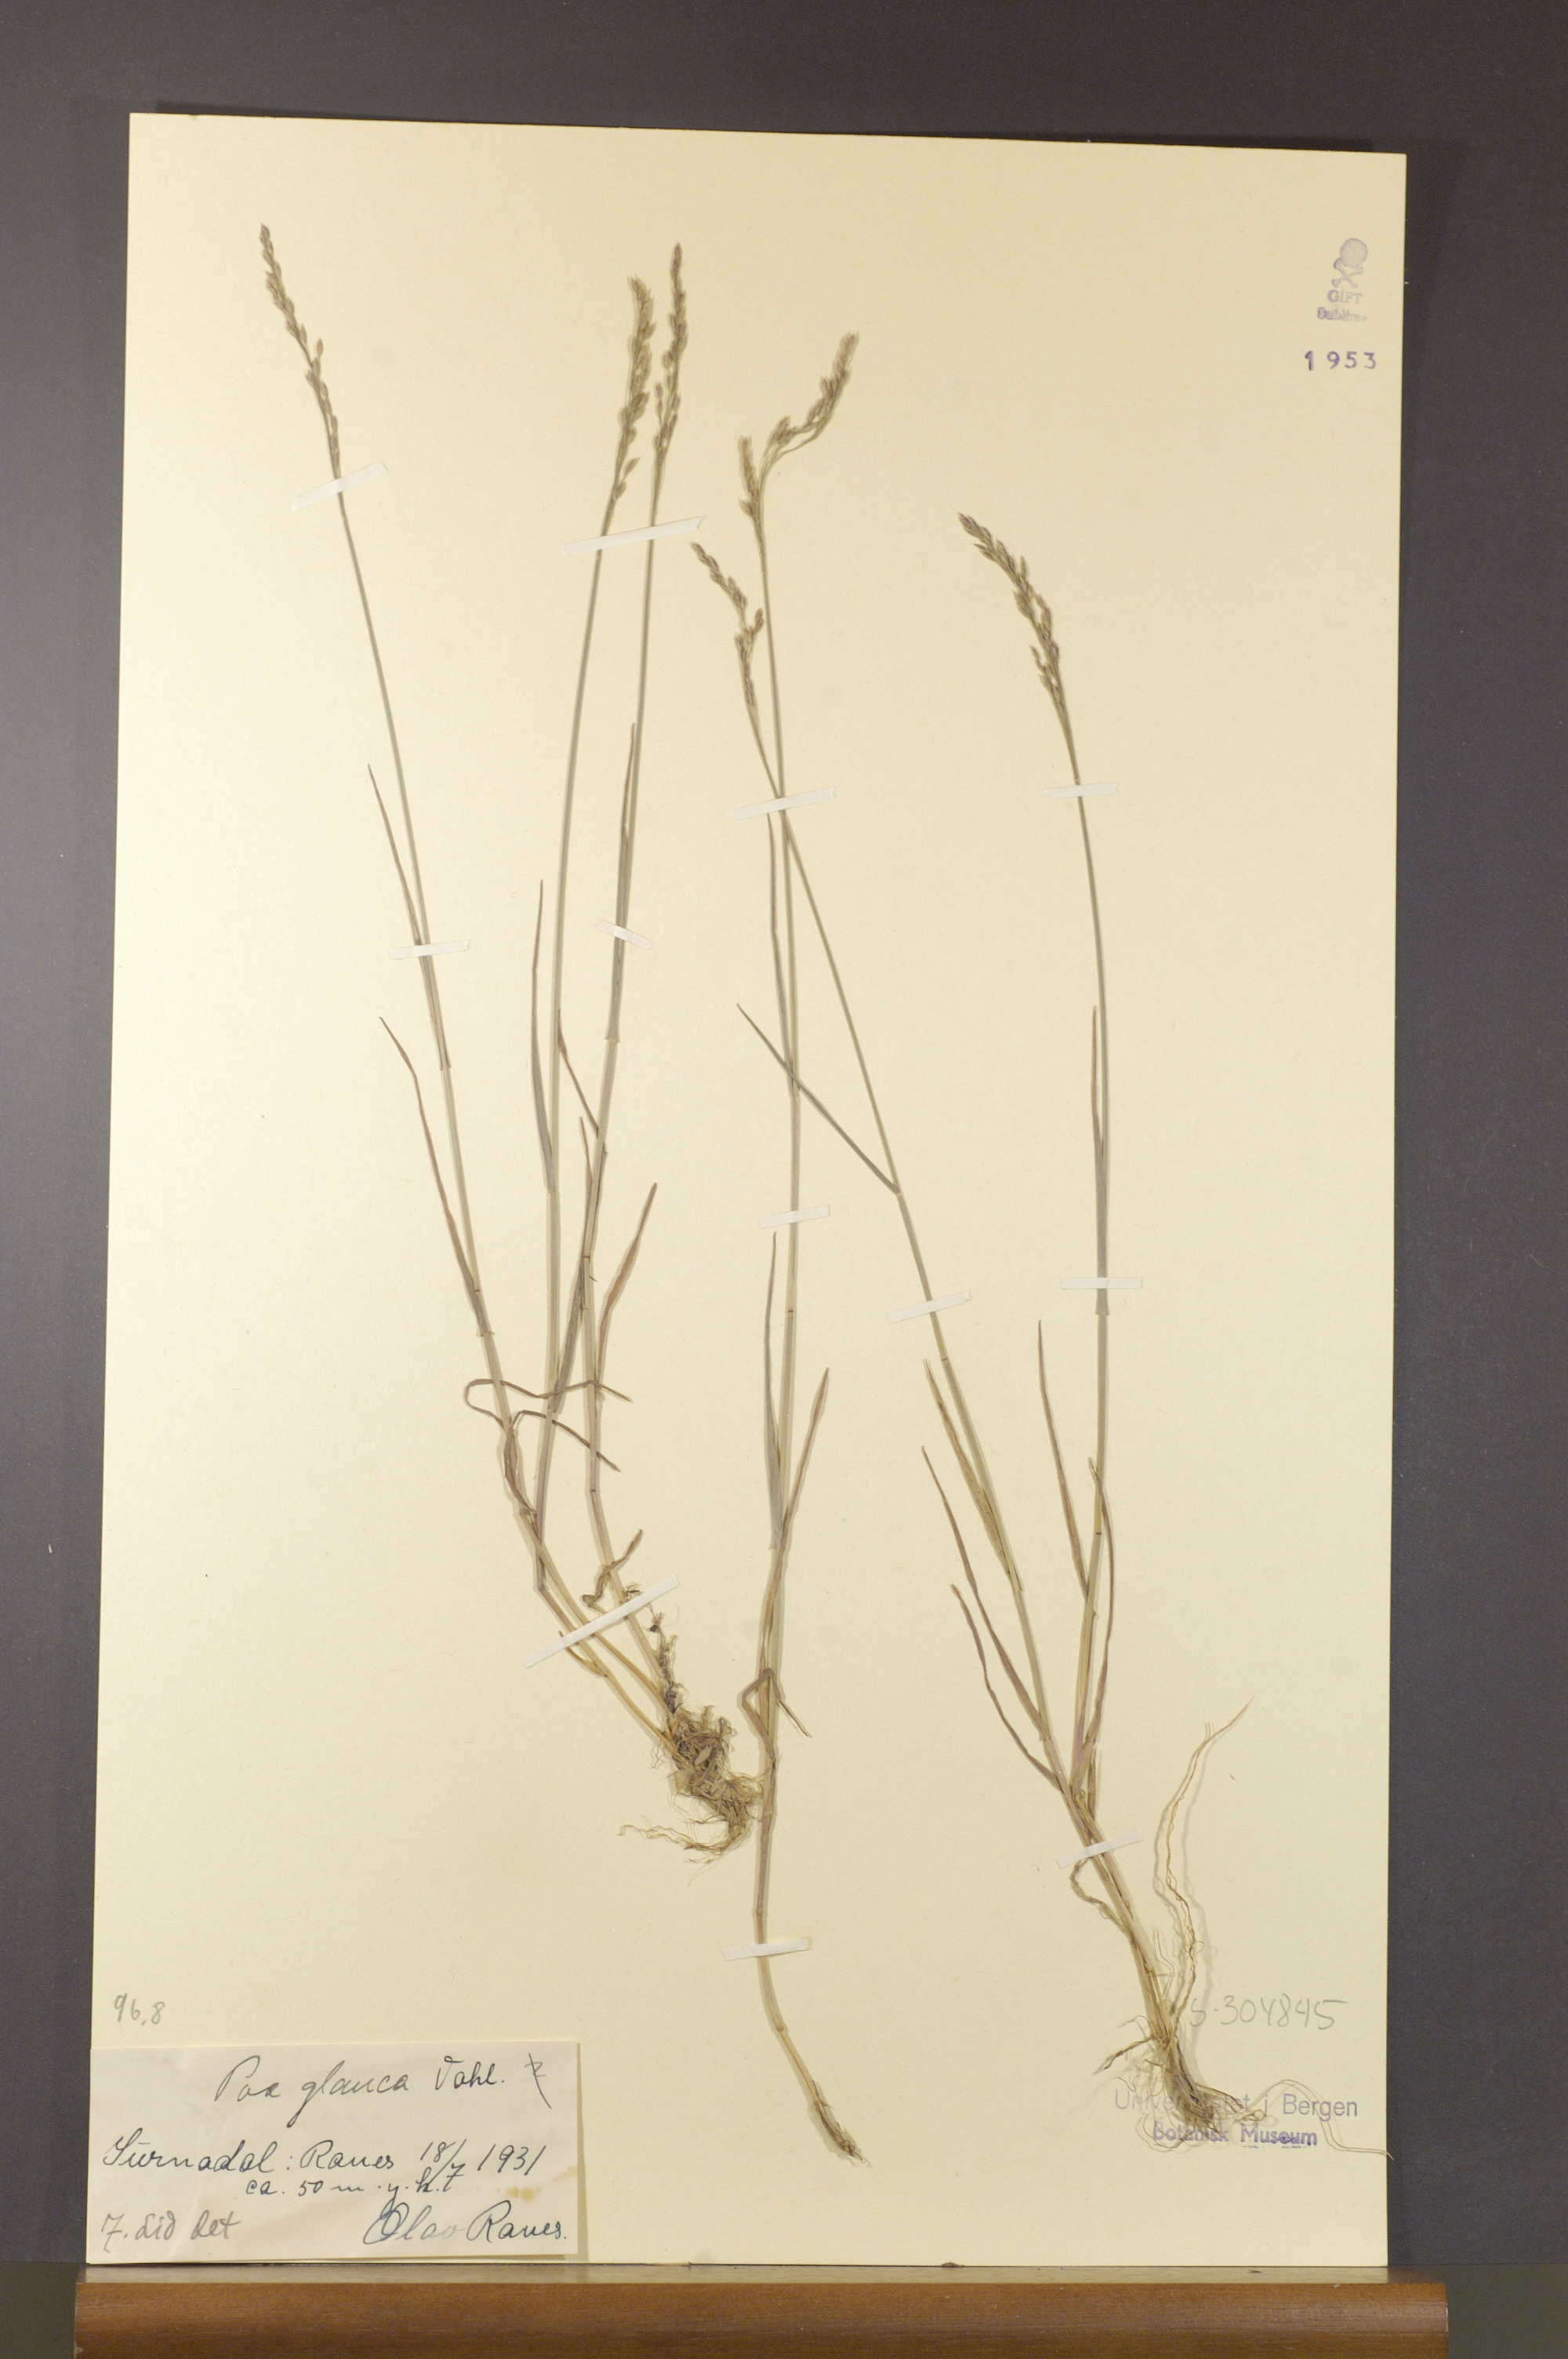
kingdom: Plantae
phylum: Tracheophyta
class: Liliopsida
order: Poales
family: Poaceae
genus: Poa
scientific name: Poa glauca
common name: Glaucous bluegrass
